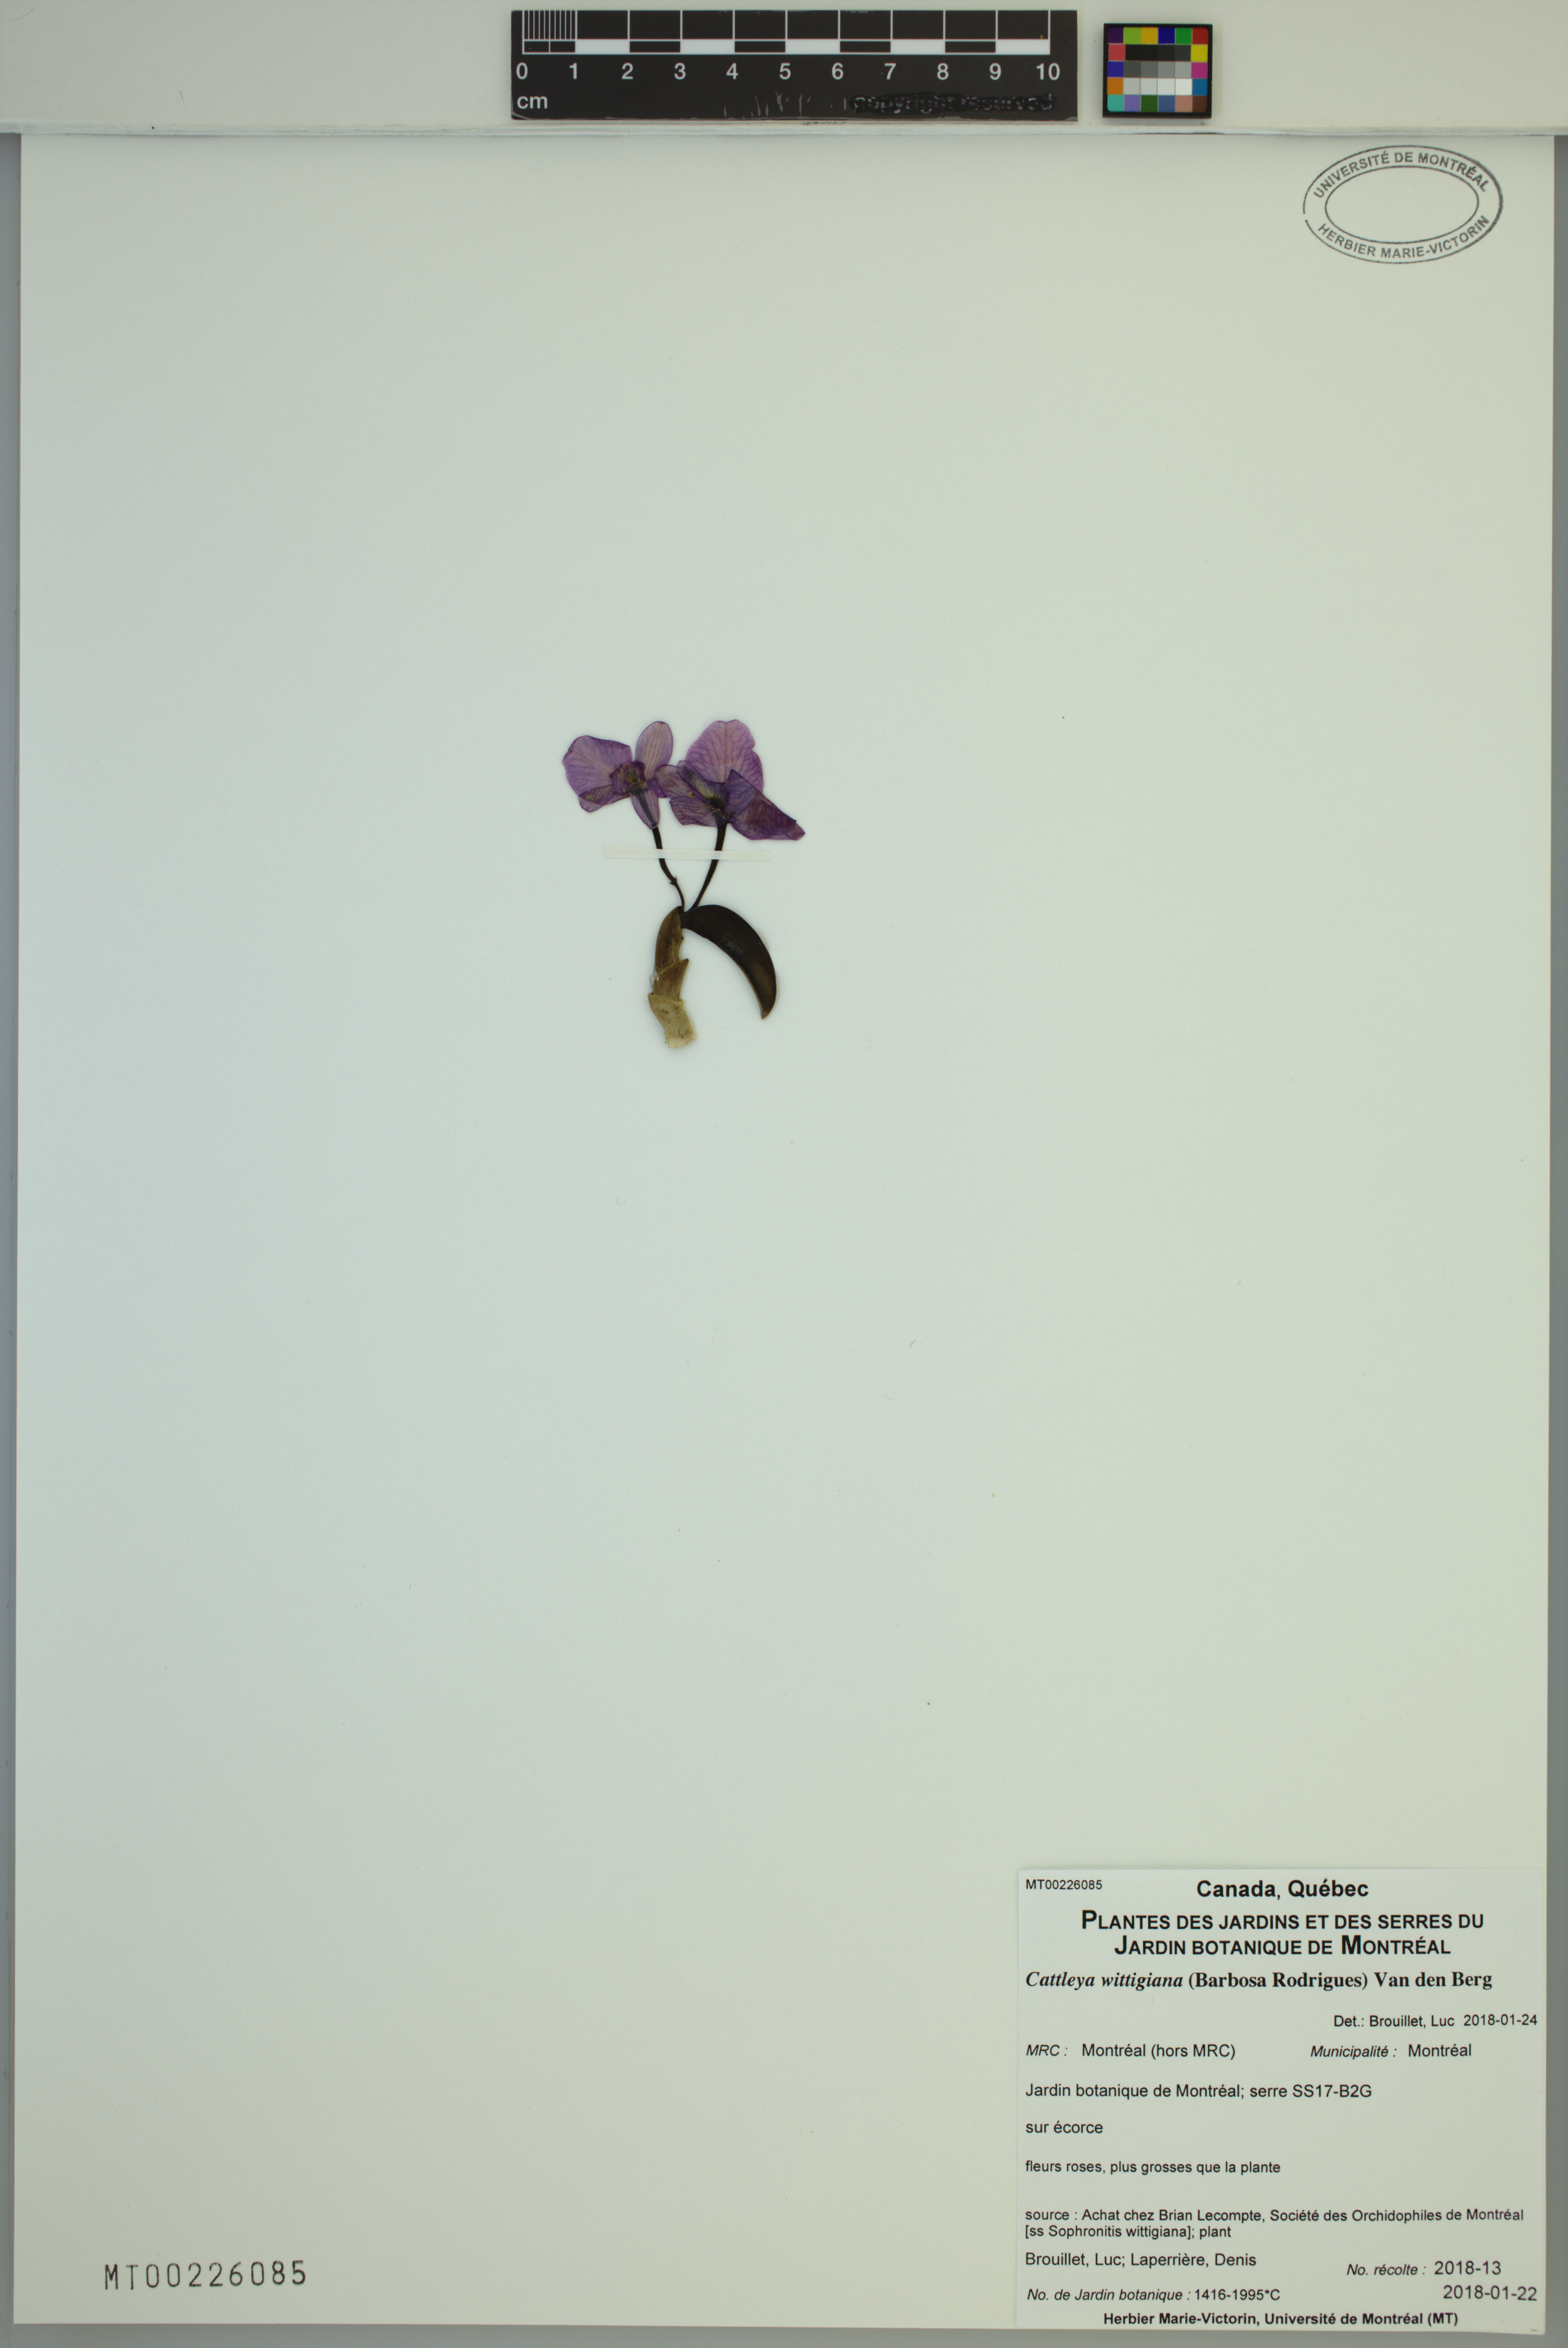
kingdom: Plantae
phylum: Tracheophyta
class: Liliopsida
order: Asparagales
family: Orchidaceae
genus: Cattleya
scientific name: Cattleya wittigiana
